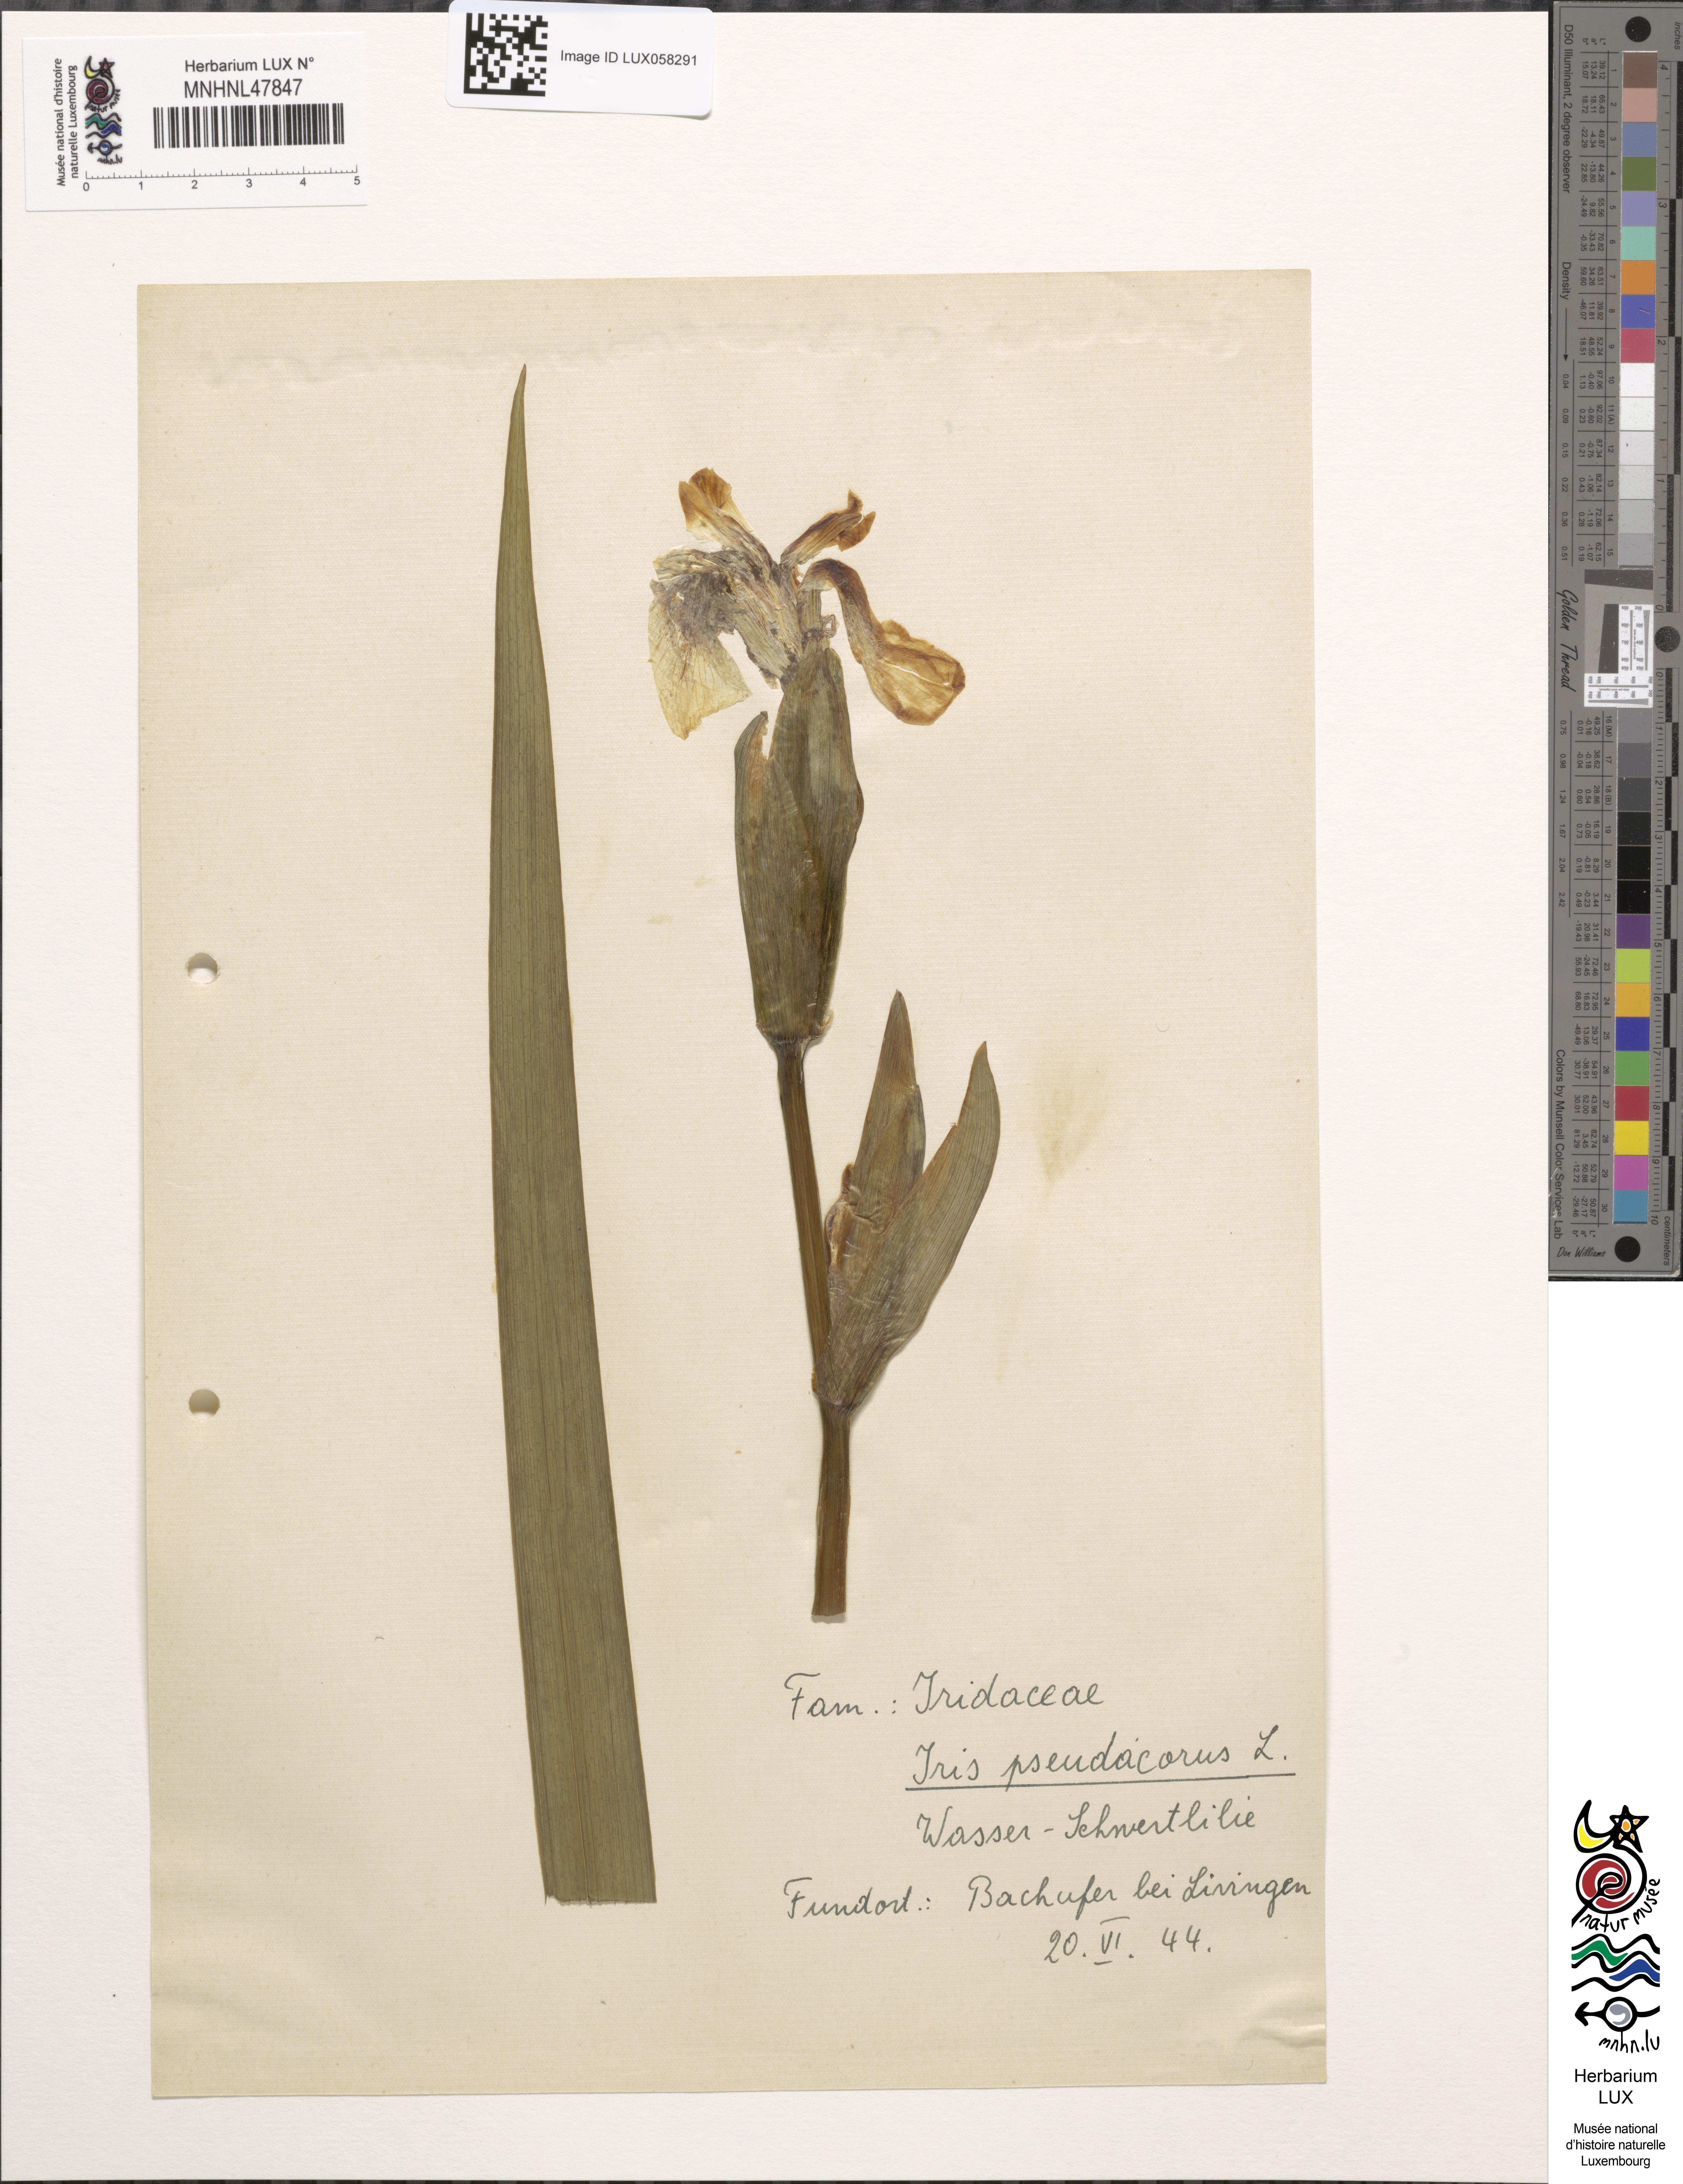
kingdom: Plantae
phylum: Tracheophyta
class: Liliopsida
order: Asparagales
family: Iridaceae
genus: Iris
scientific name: Iris pseudacorus
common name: Yellow flag
